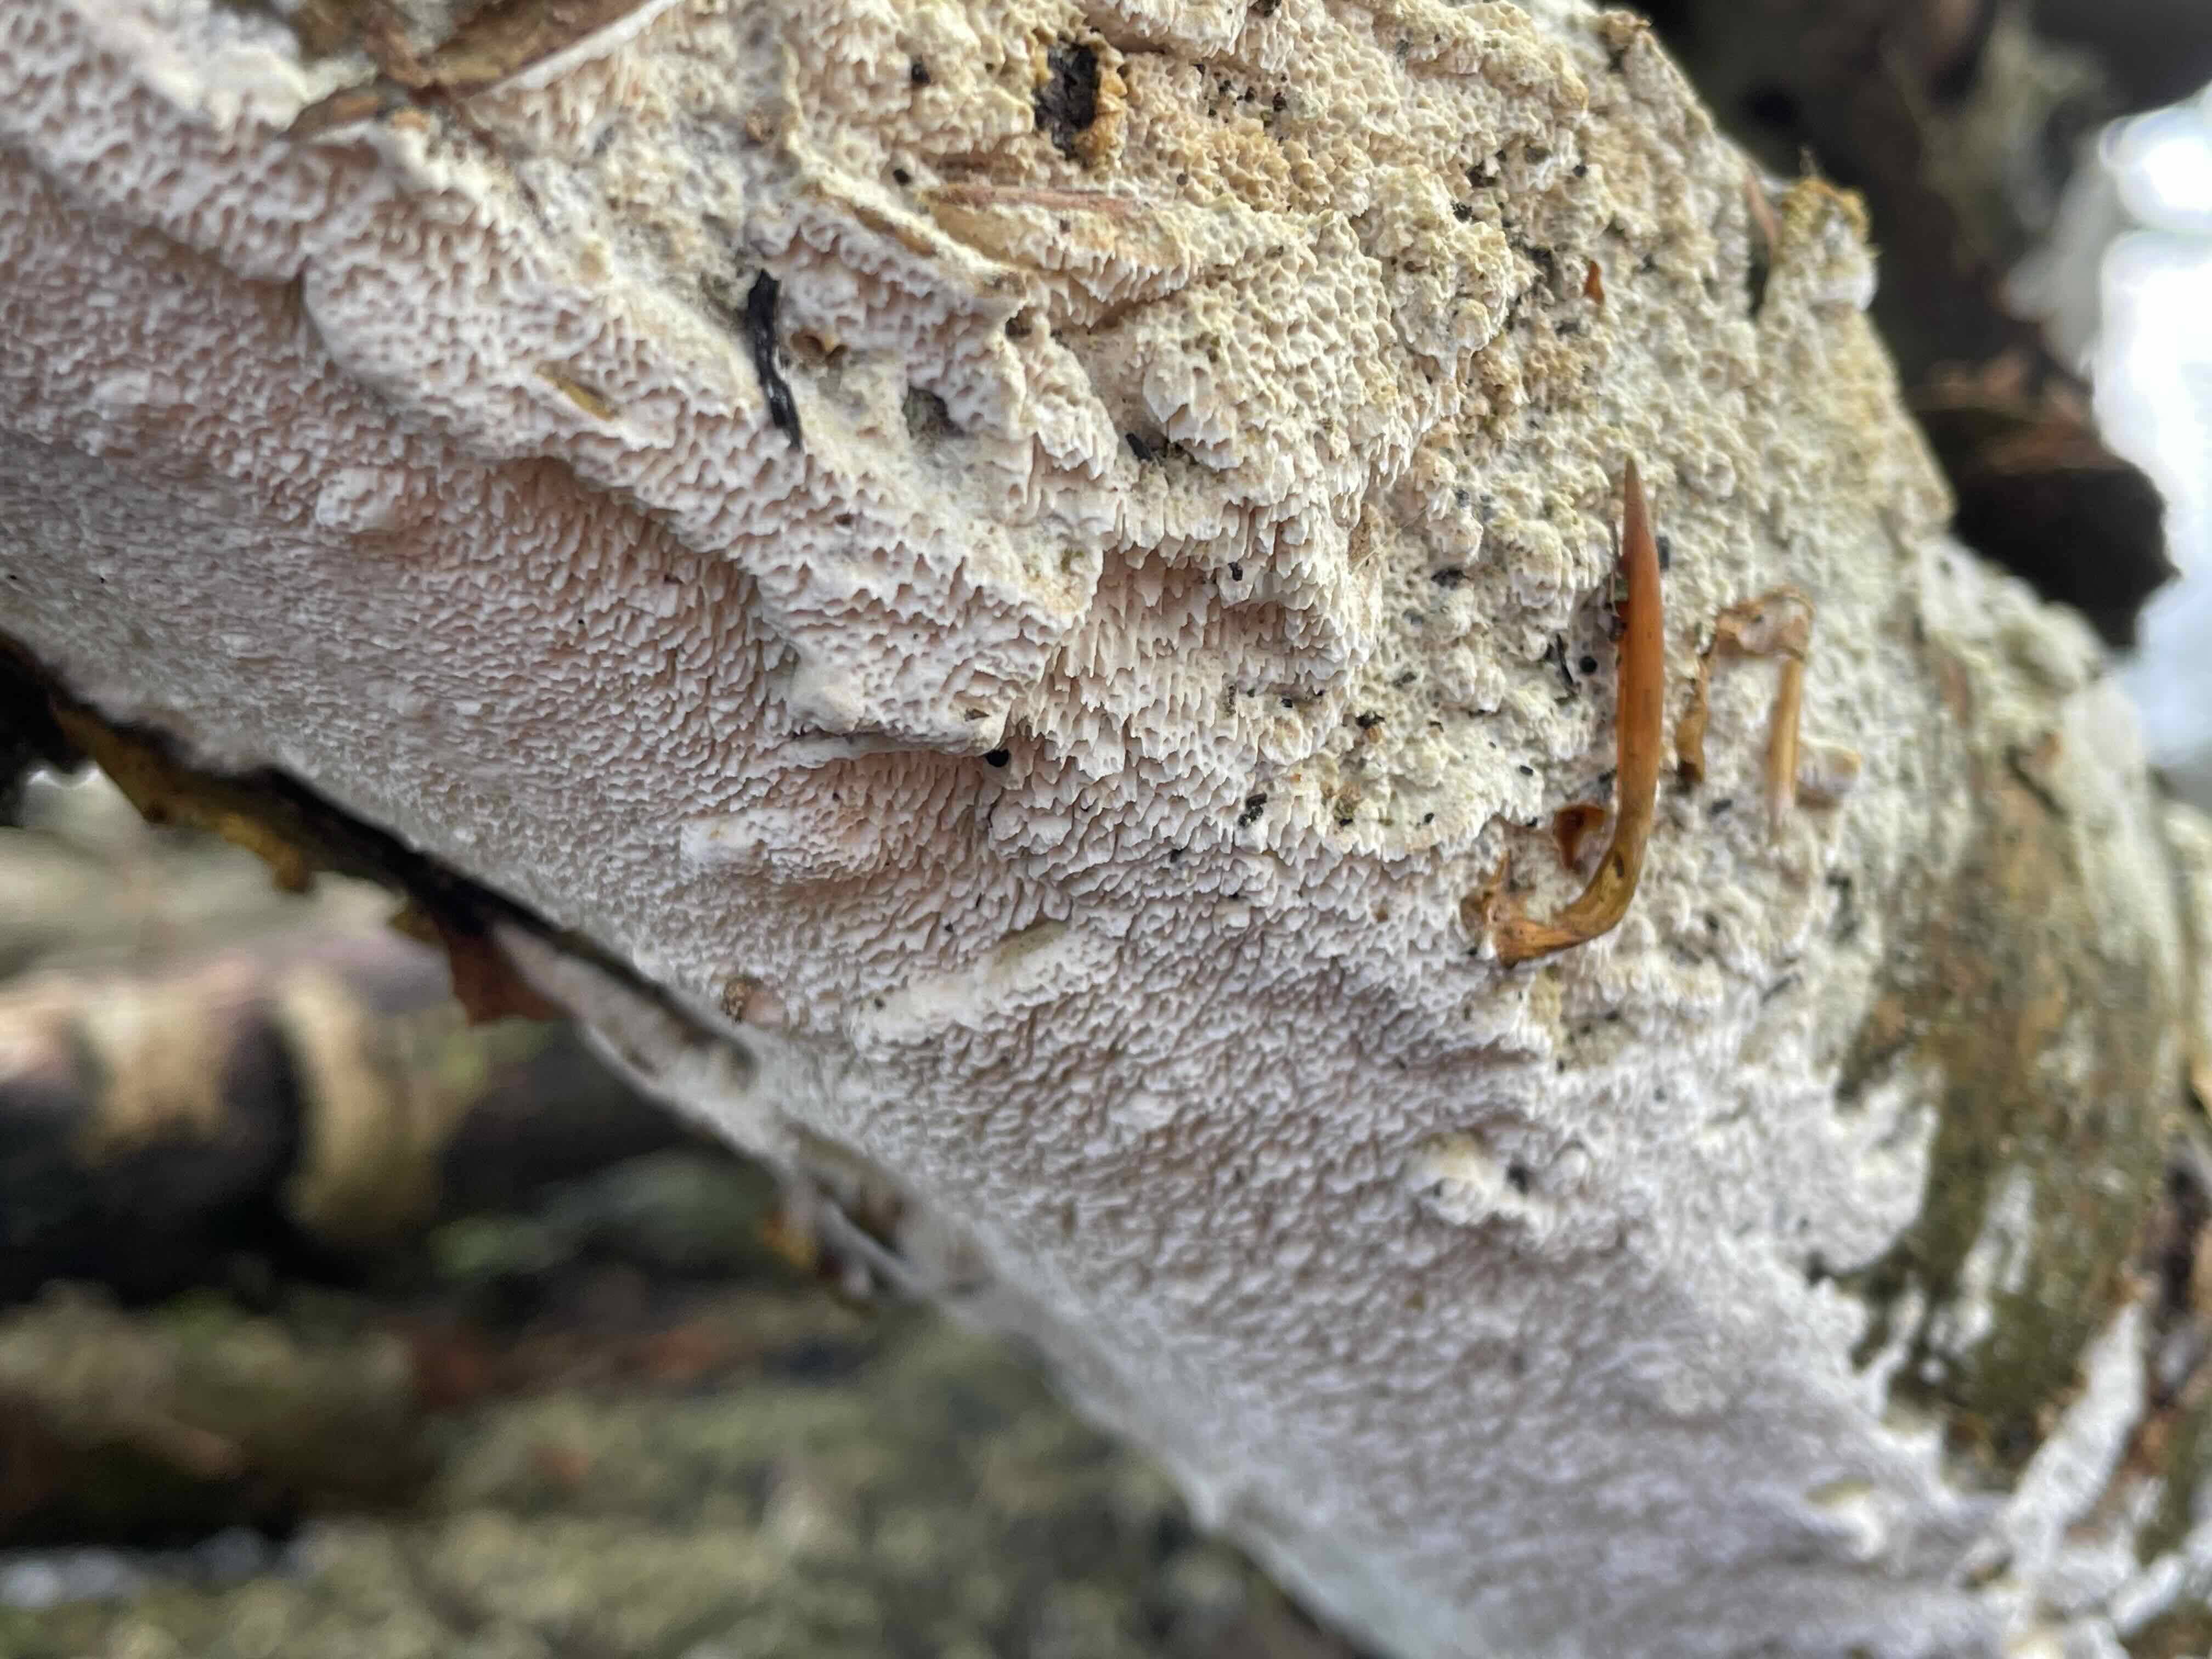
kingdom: Fungi
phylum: Basidiomycota
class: Agaricomycetes
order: Hymenochaetales
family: Schizoporaceae
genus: Schizopora
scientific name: Schizopora paradoxa
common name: hvid tandsvamp
